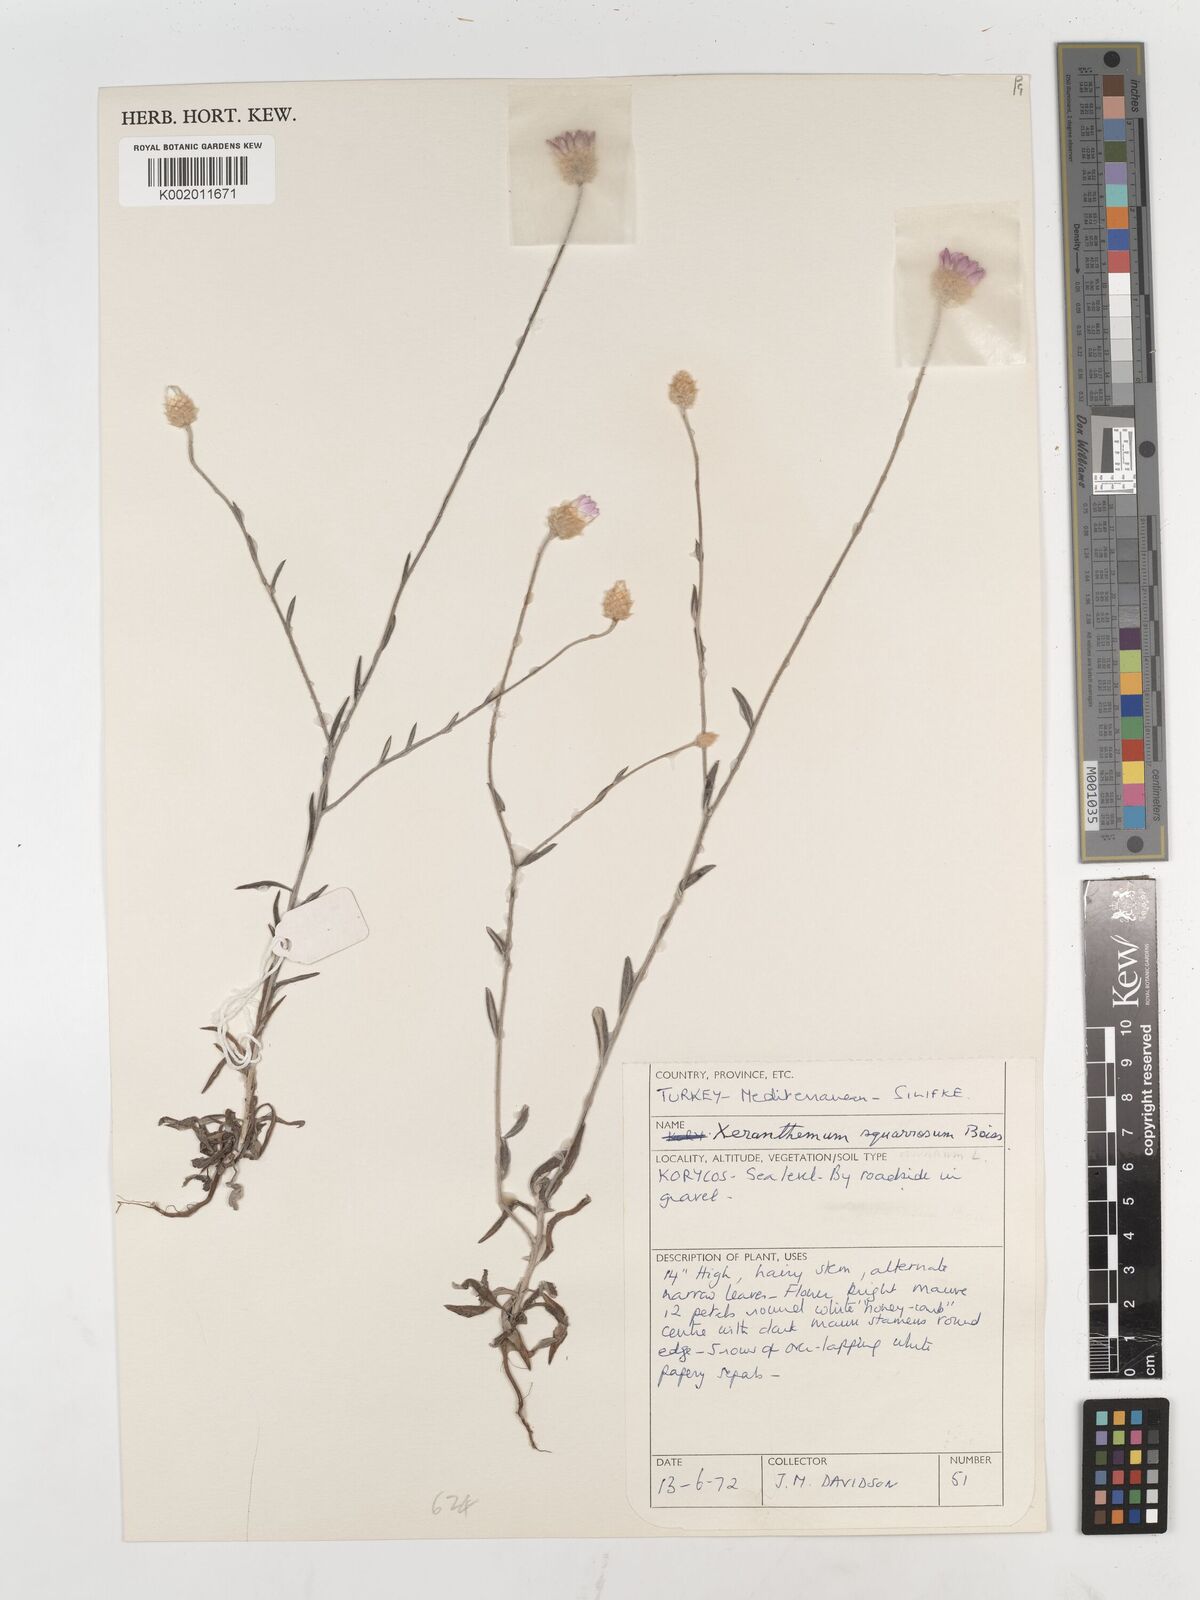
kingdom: Plantae
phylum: Tracheophyta
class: Magnoliopsida
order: Asterales
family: Asteraceae
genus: Xeranthemum
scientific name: Xeranthemum squarrosum
